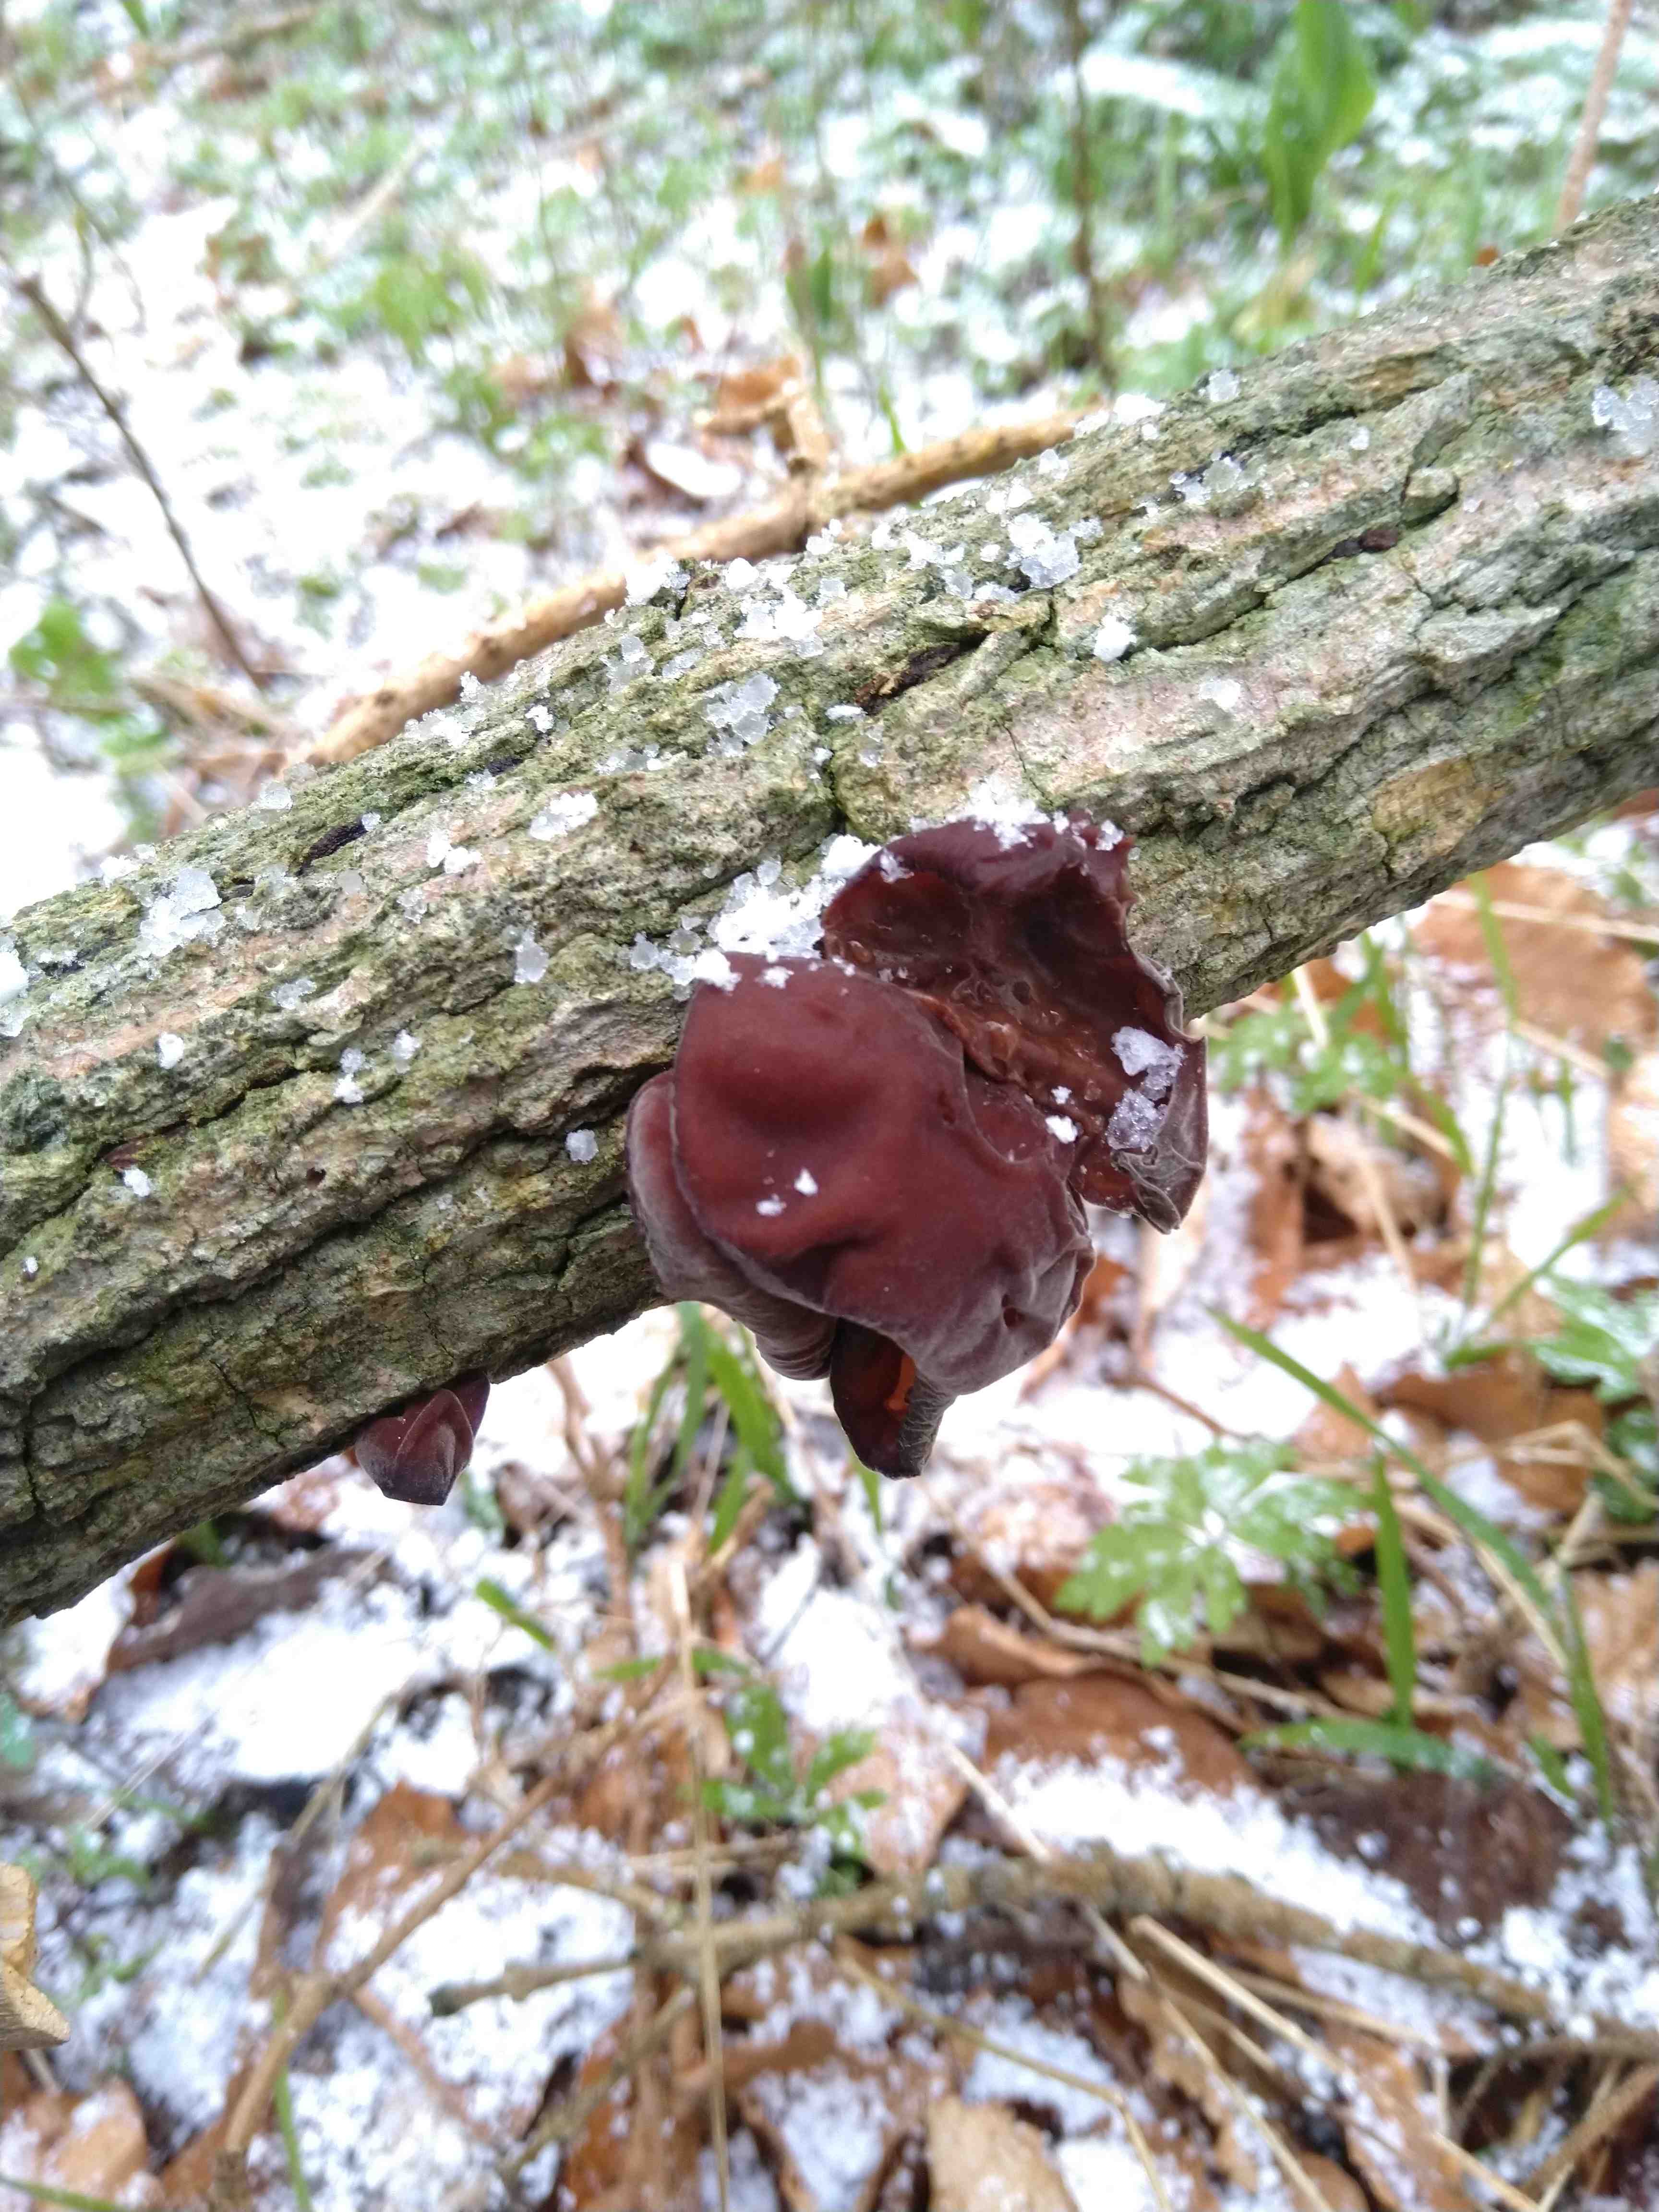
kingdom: Fungi
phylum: Basidiomycota
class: Agaricomycetes
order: Auriculariales
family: Auriculariaceae
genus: Auricularia
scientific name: Auricularia auricula-judae
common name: almindelig judasøre
